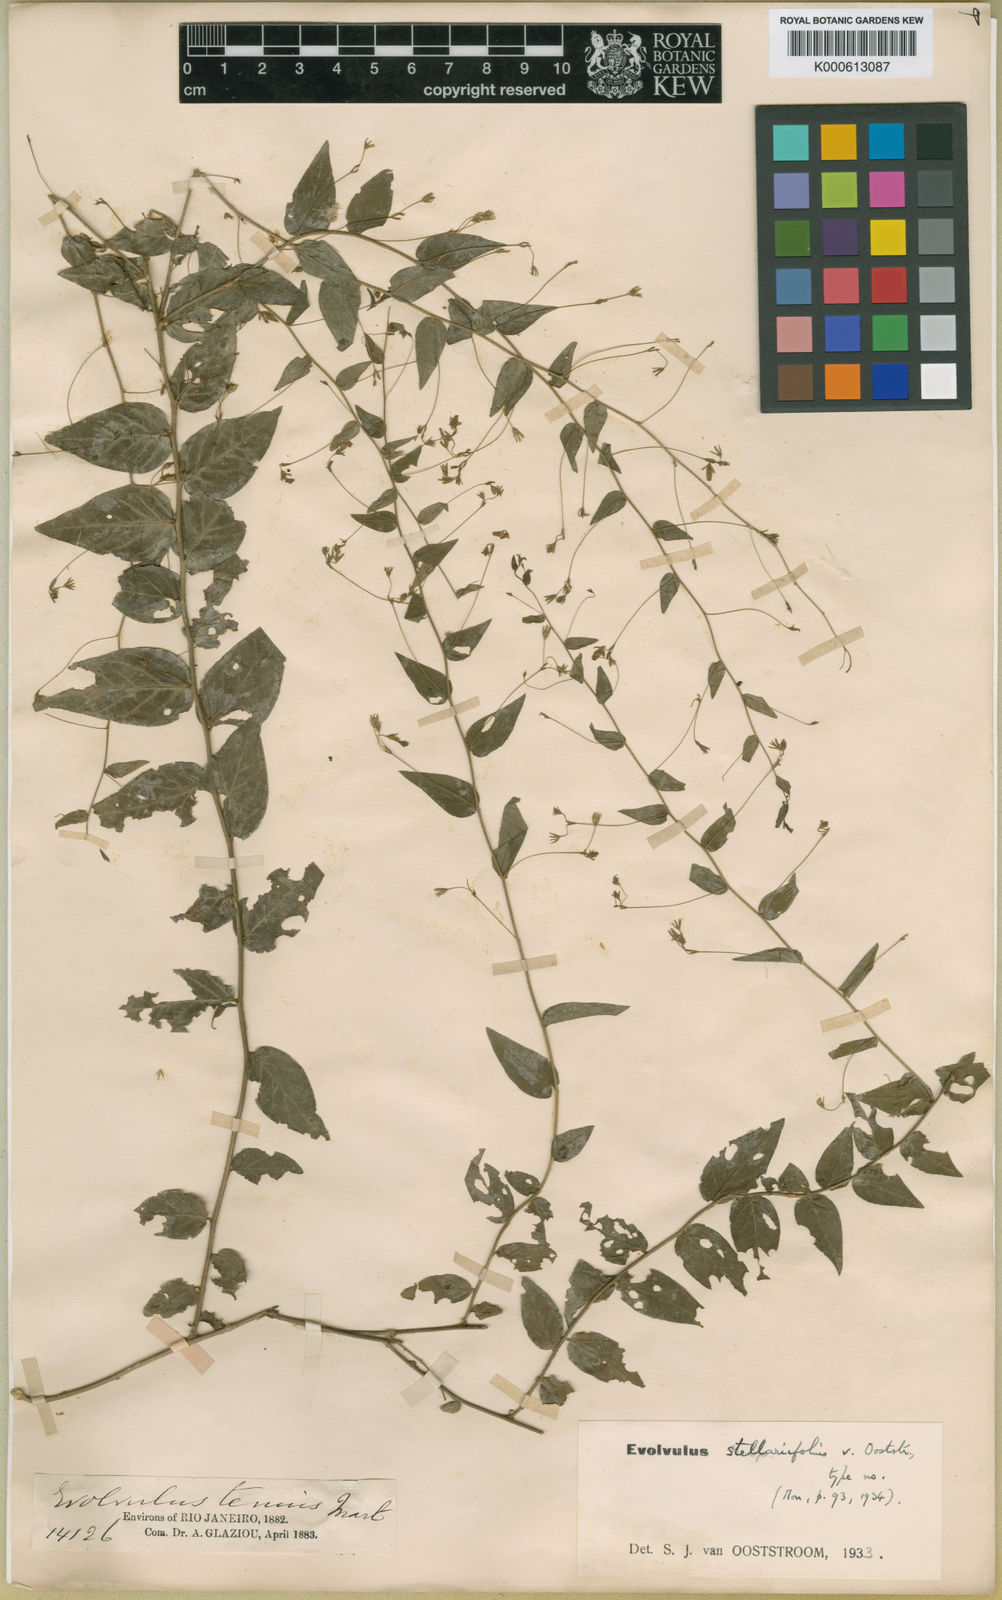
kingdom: Plantae
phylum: Tracheophyta
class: Magnoliopsida
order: Solanales
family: Convolvulaceae
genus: Evolvulus
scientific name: Evolvulus stellariifolius
